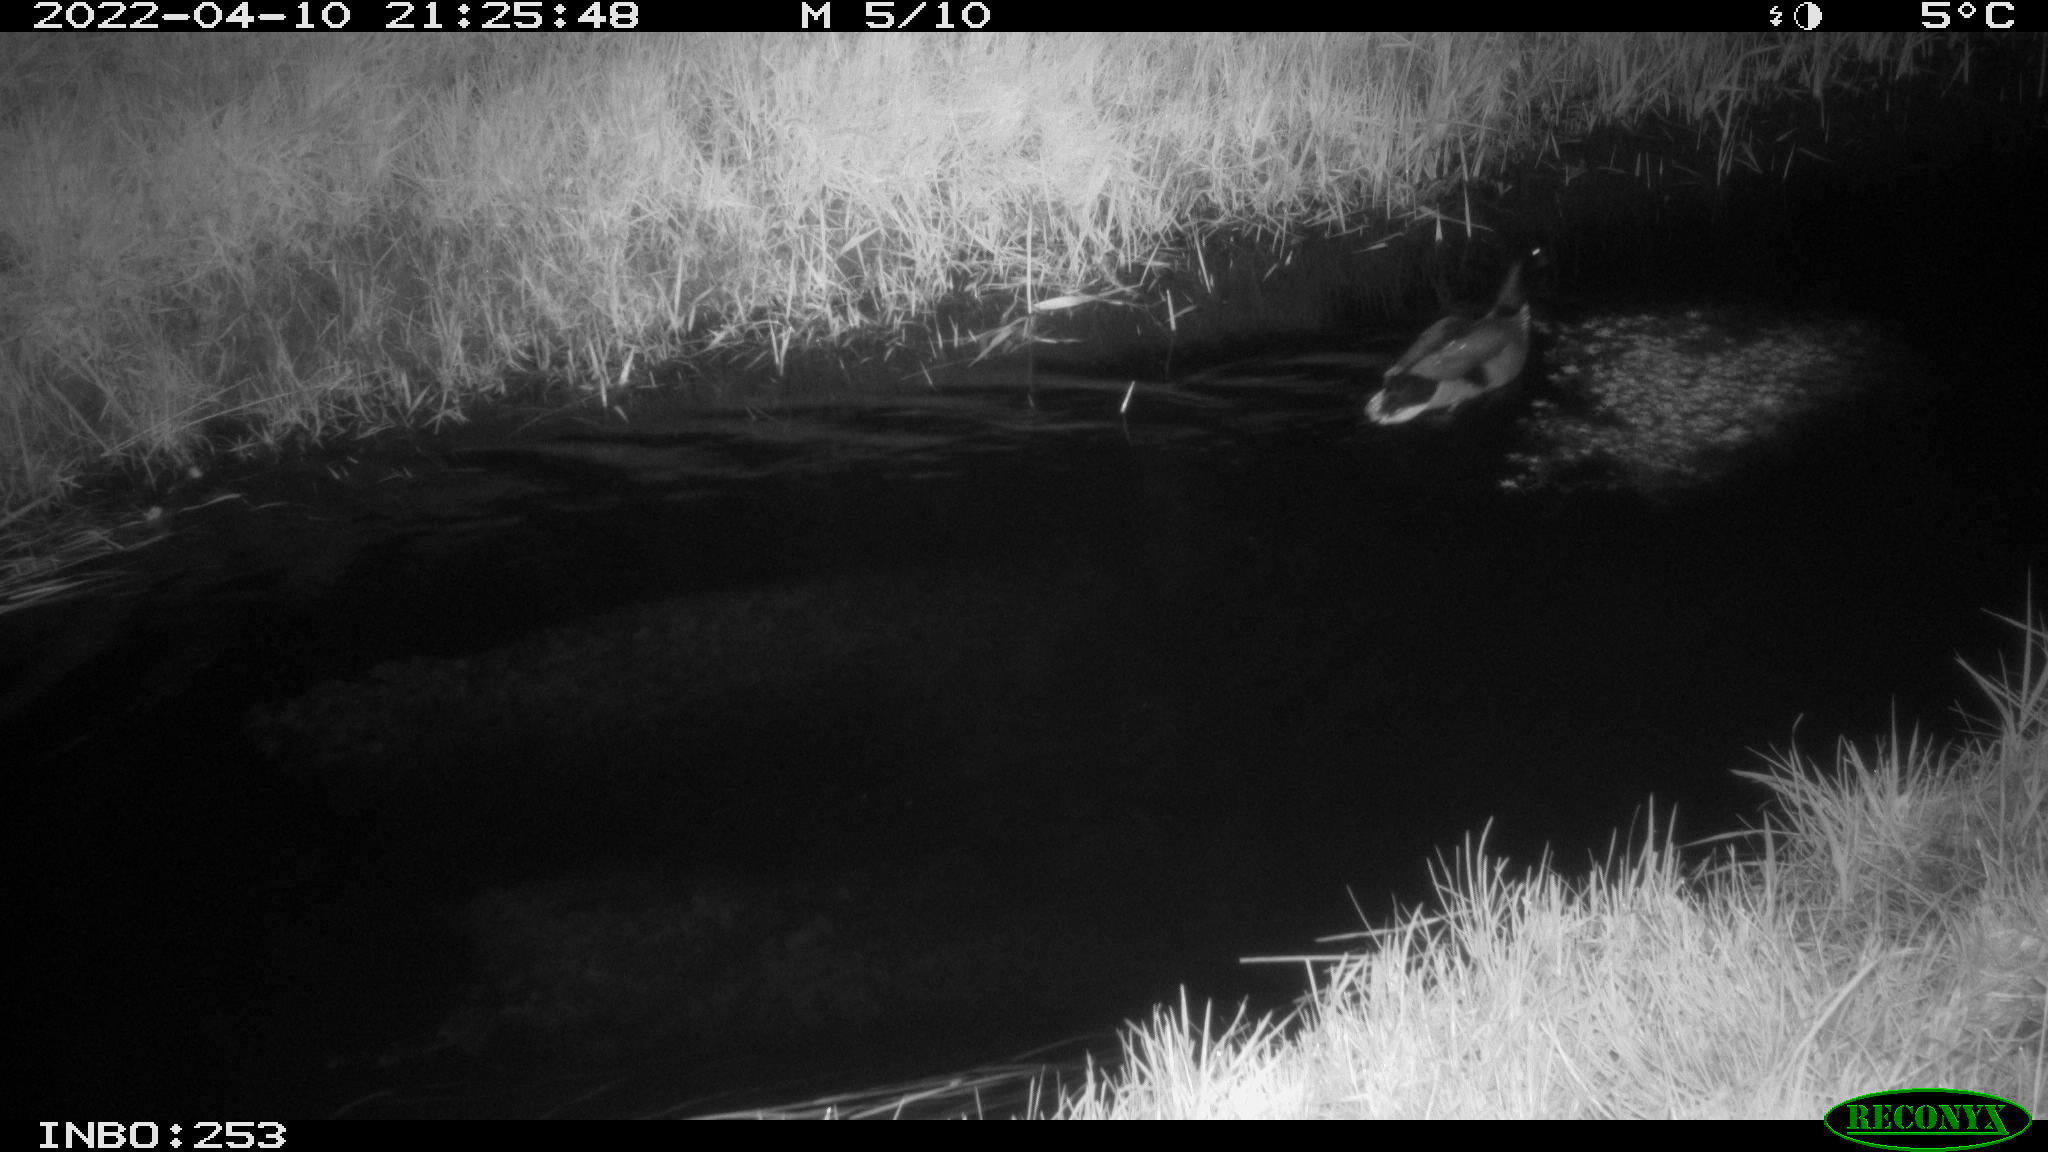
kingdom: Animalia
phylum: Chordata
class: Aves
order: Anseriformes
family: Anatidae
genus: Anas
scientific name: Anas platyrhynchos
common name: Mallard
